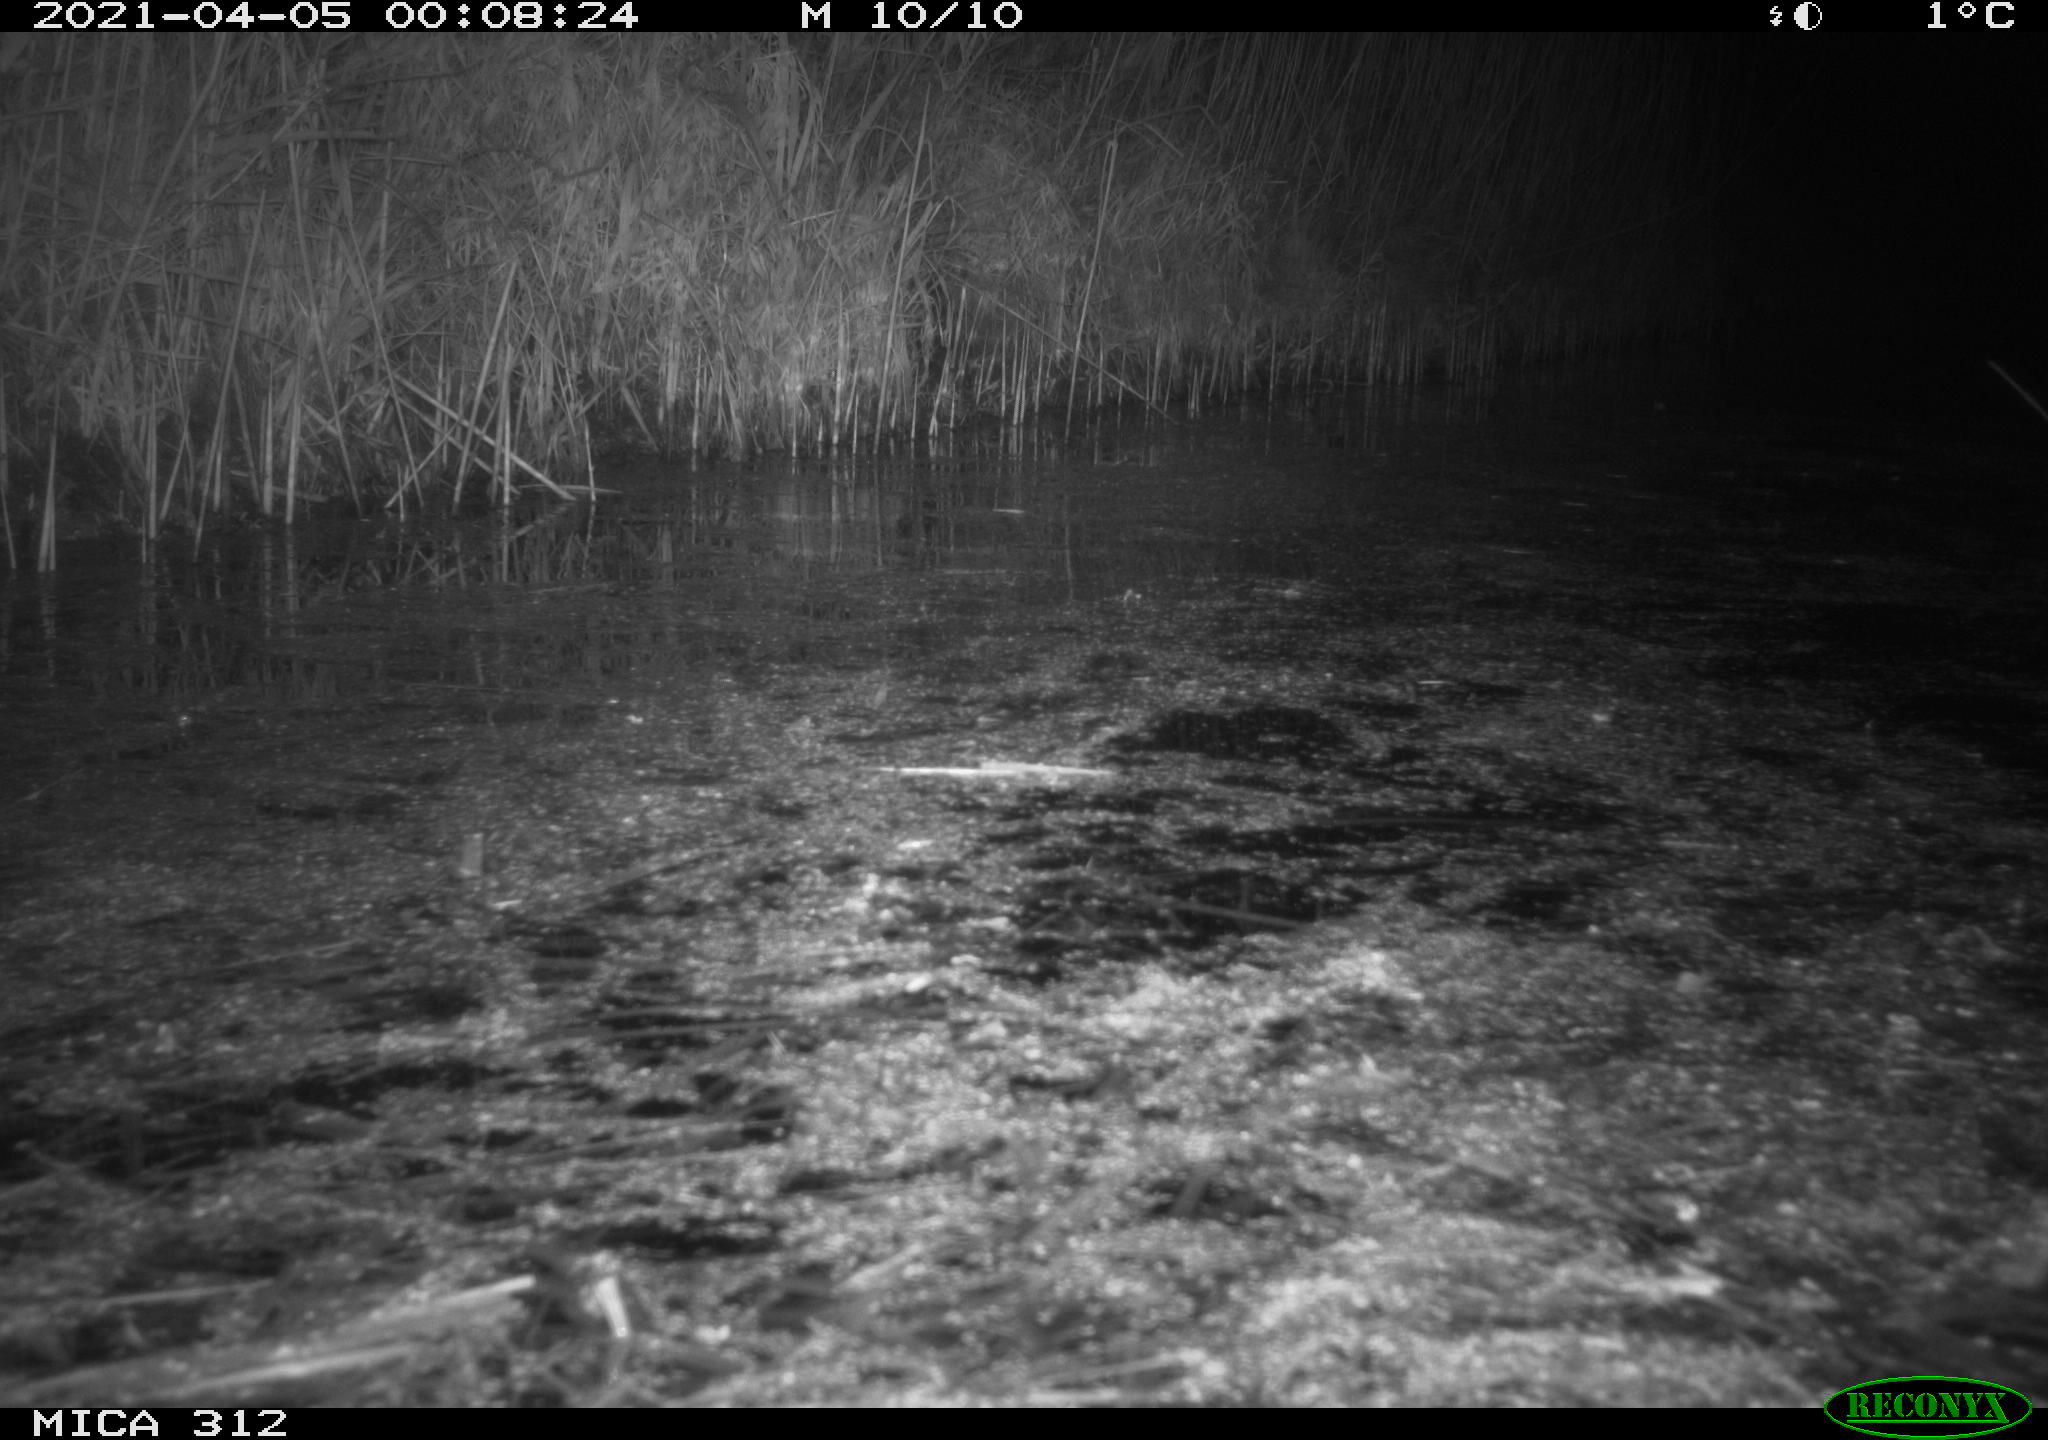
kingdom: Animalia
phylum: Chordata
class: Aves
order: Anseriformes
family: Anatidae
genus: Anas
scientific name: Anas platyrhynchos
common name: Mallard
